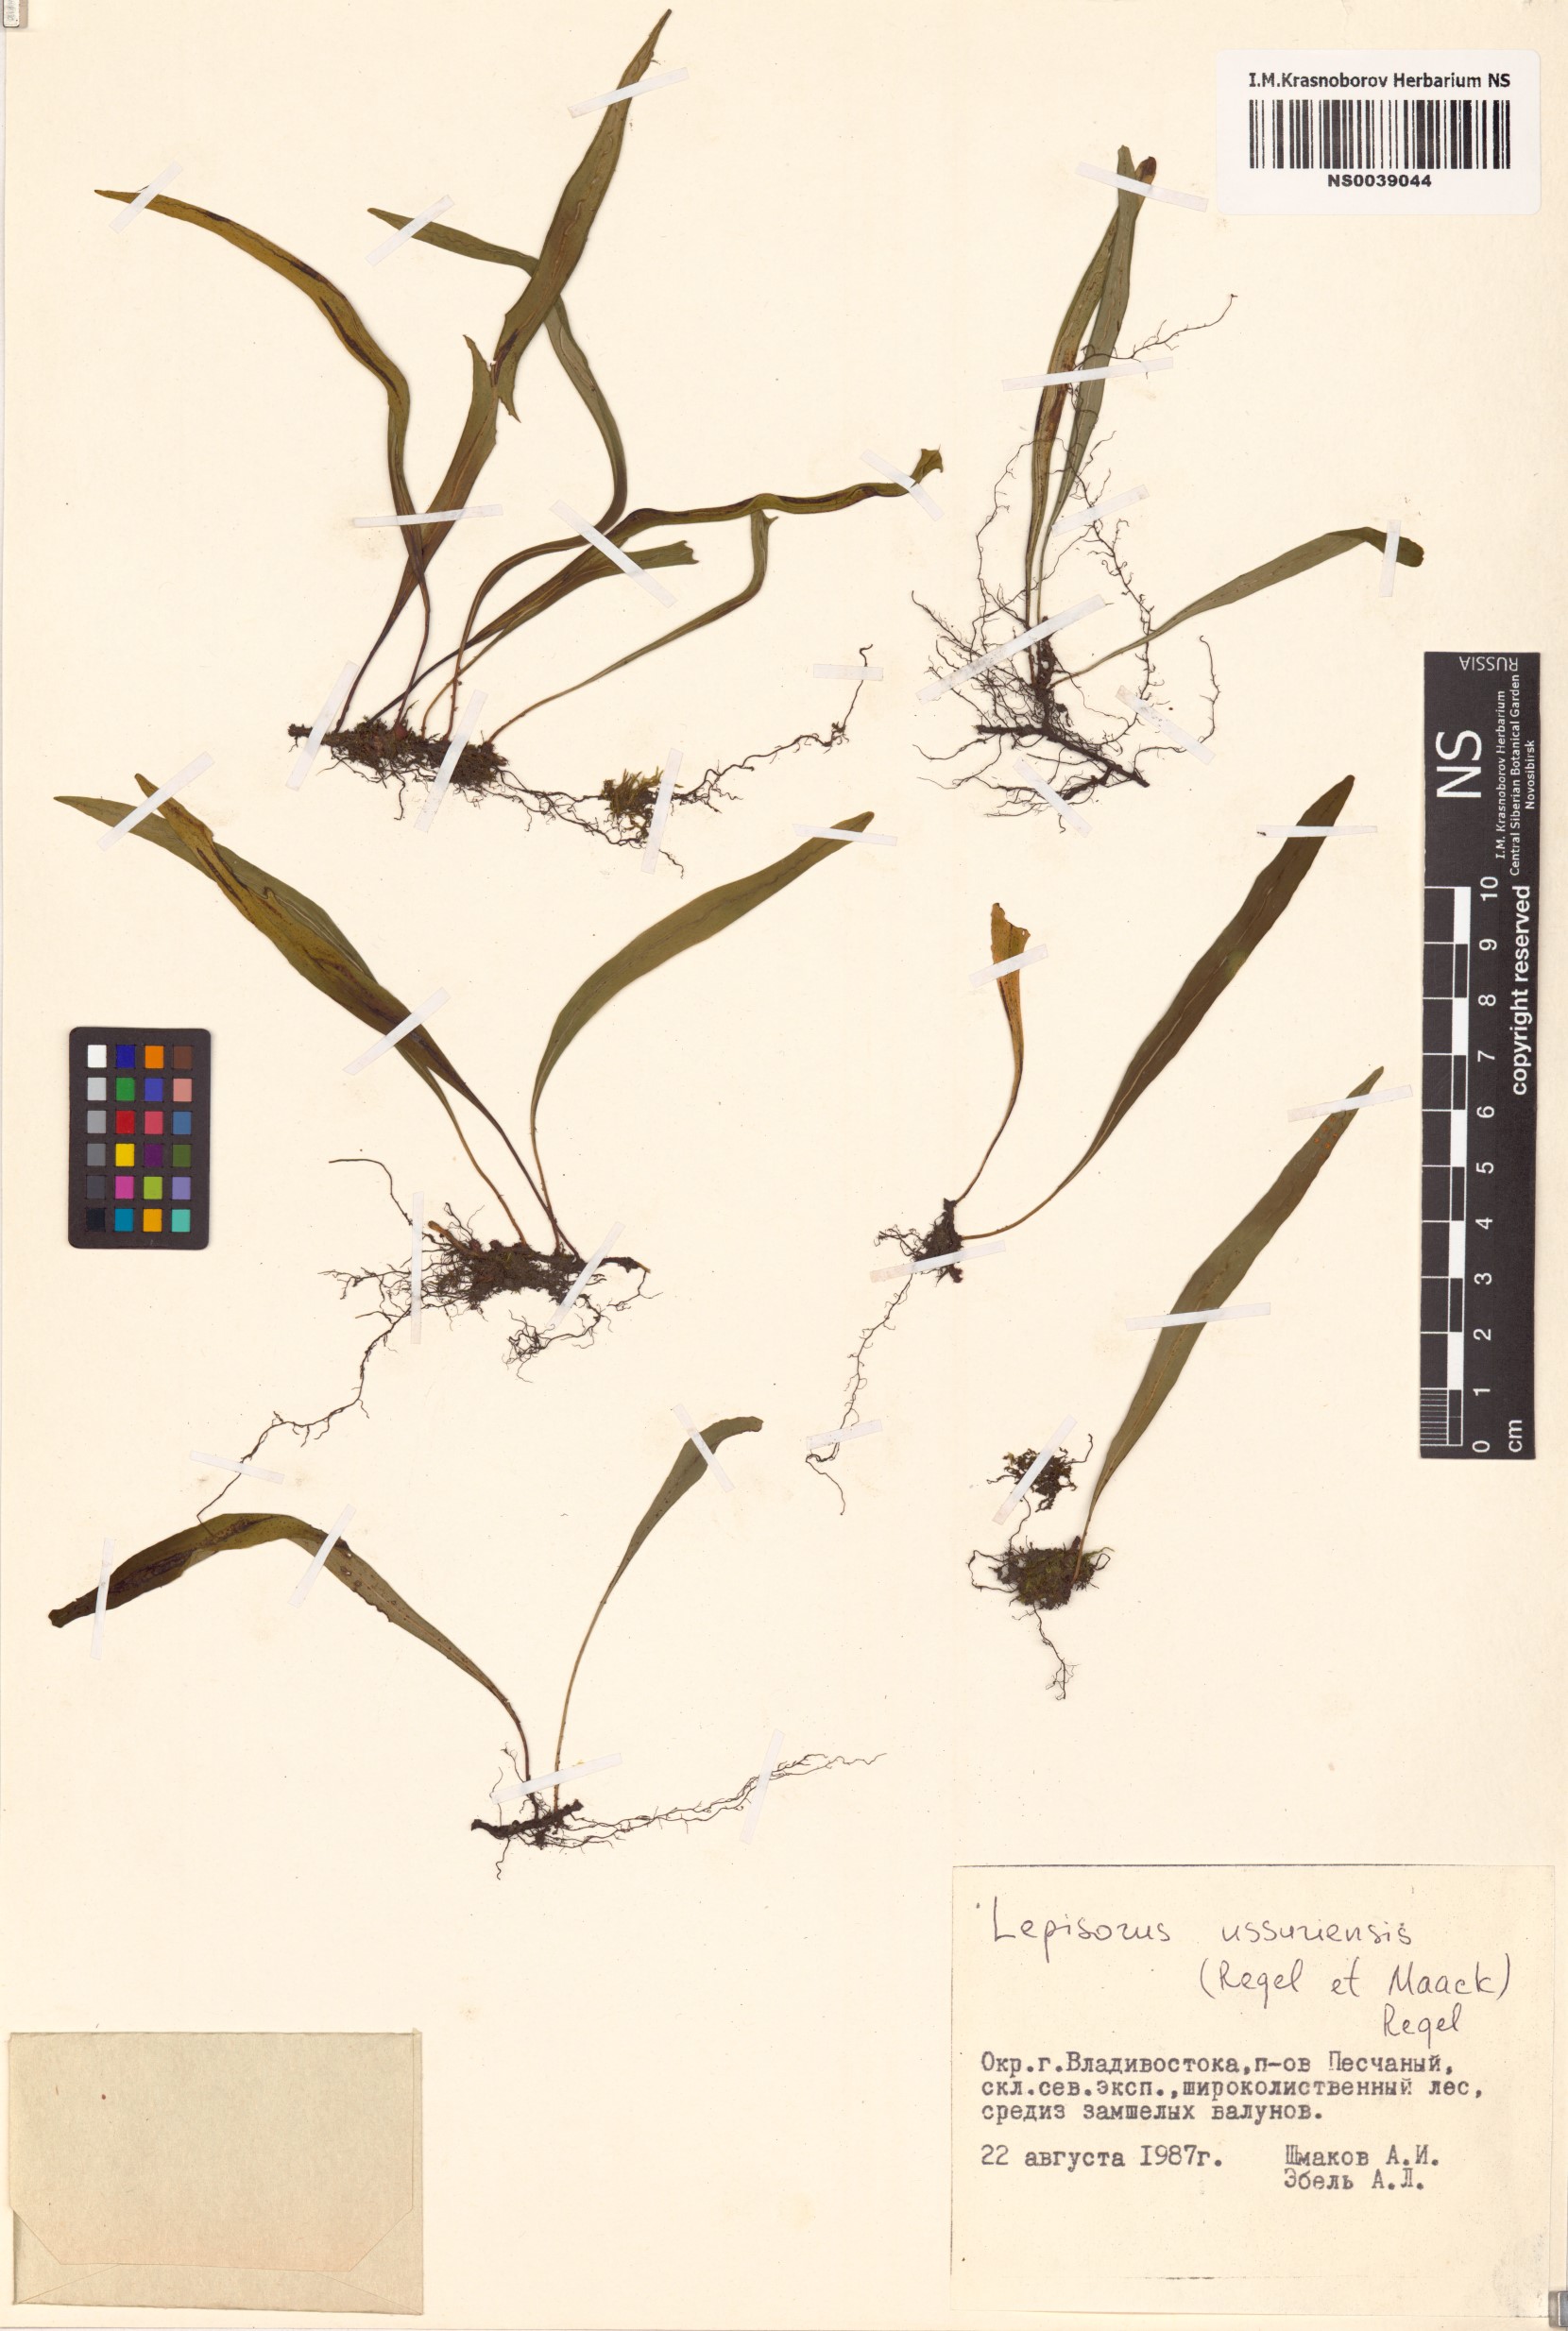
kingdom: Plantae
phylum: Tracheophyta
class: Polypodiopsida
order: Polypodiales
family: Polypodiaceae
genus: Lepisorus
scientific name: Lepisorus ussuriensis
